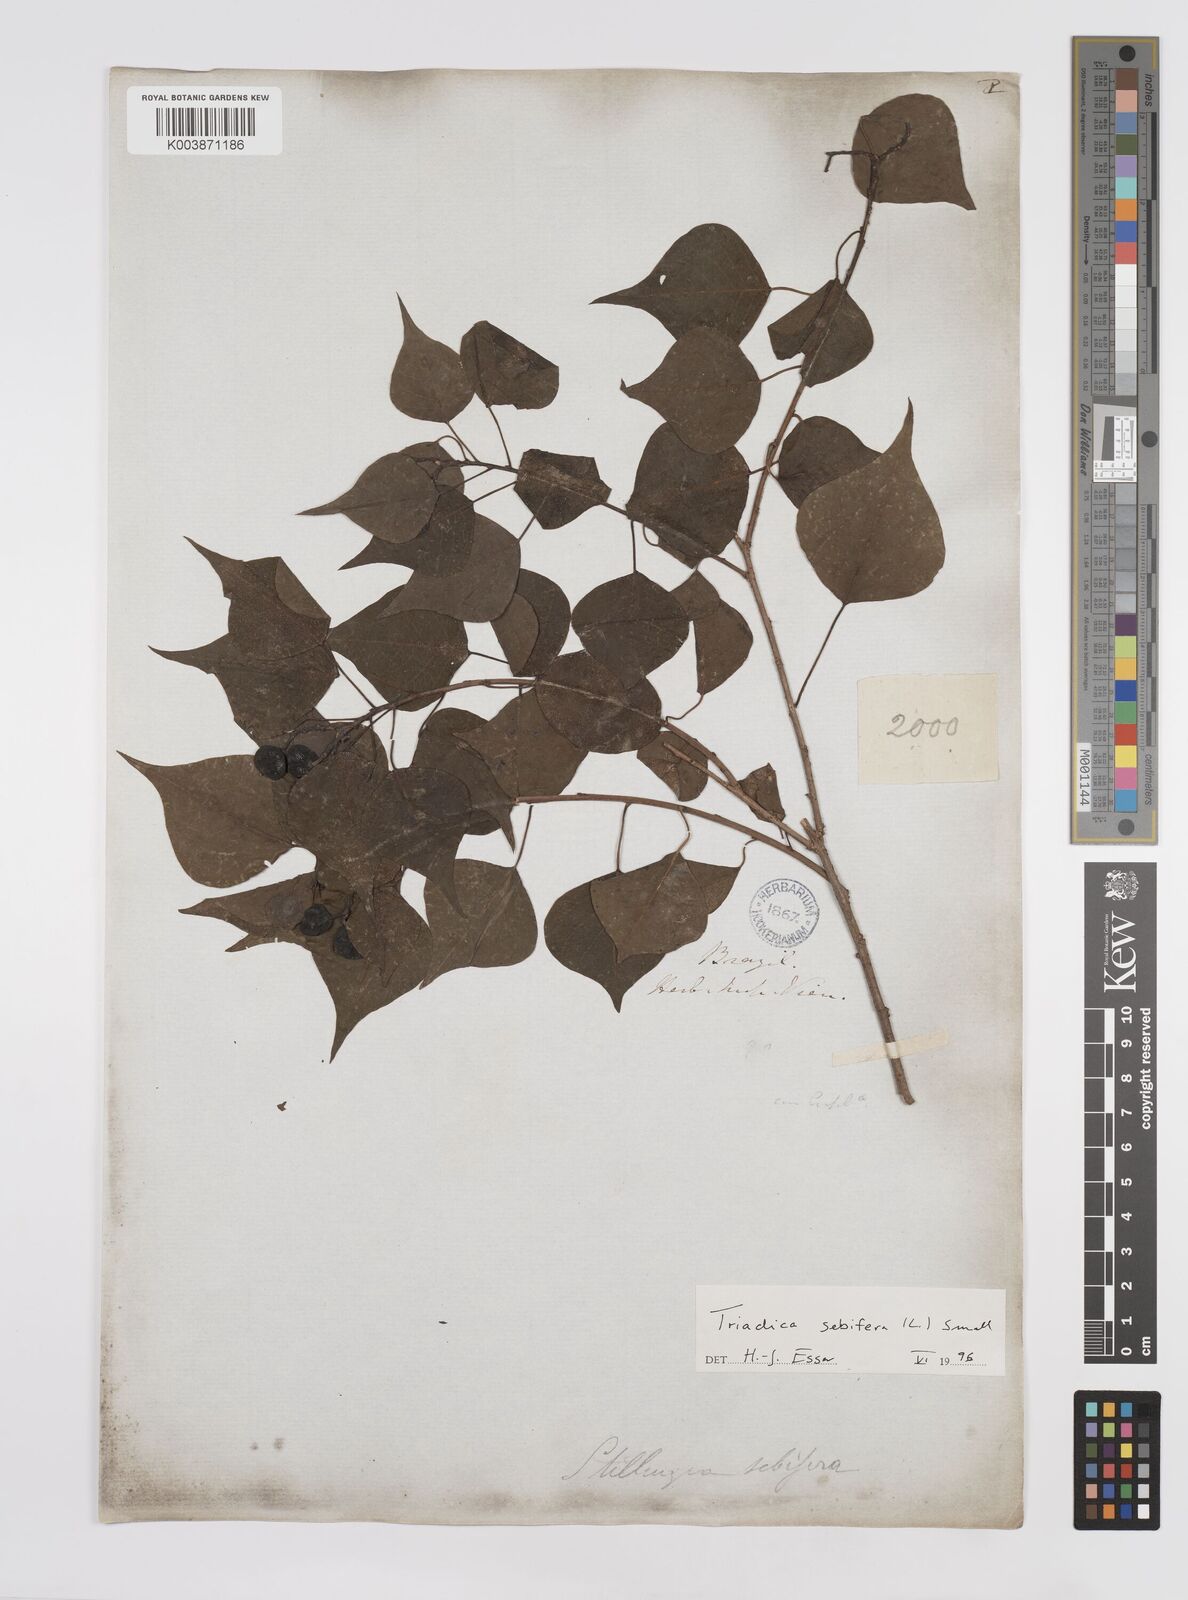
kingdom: Plantae
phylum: Tracheophyta
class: Magnoliopsida
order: Malpighiales
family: Euphorbiaceae
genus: Triadica
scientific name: Triadica sebifera
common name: Chinese tallow
